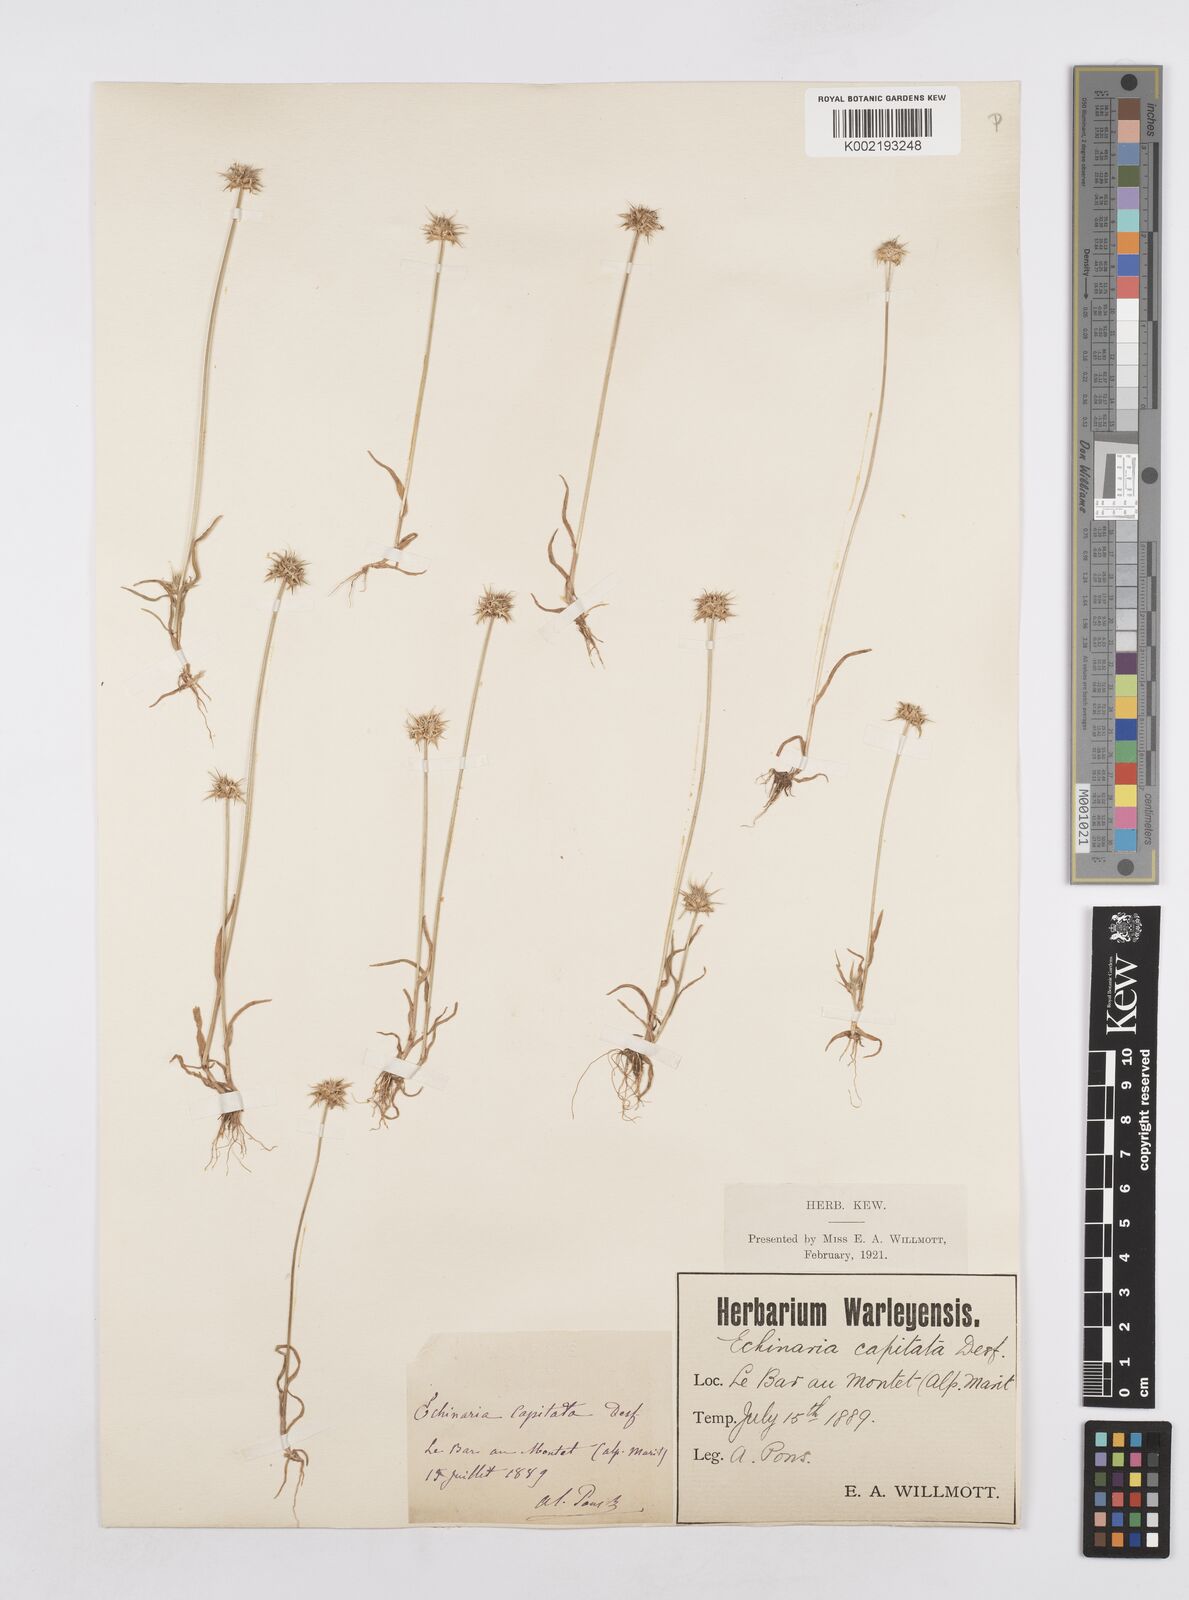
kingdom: Plantae
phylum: Tracheophyta
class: Liliopsida
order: Poales
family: Poaceae
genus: Echinaria
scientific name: Echinaria capitata
